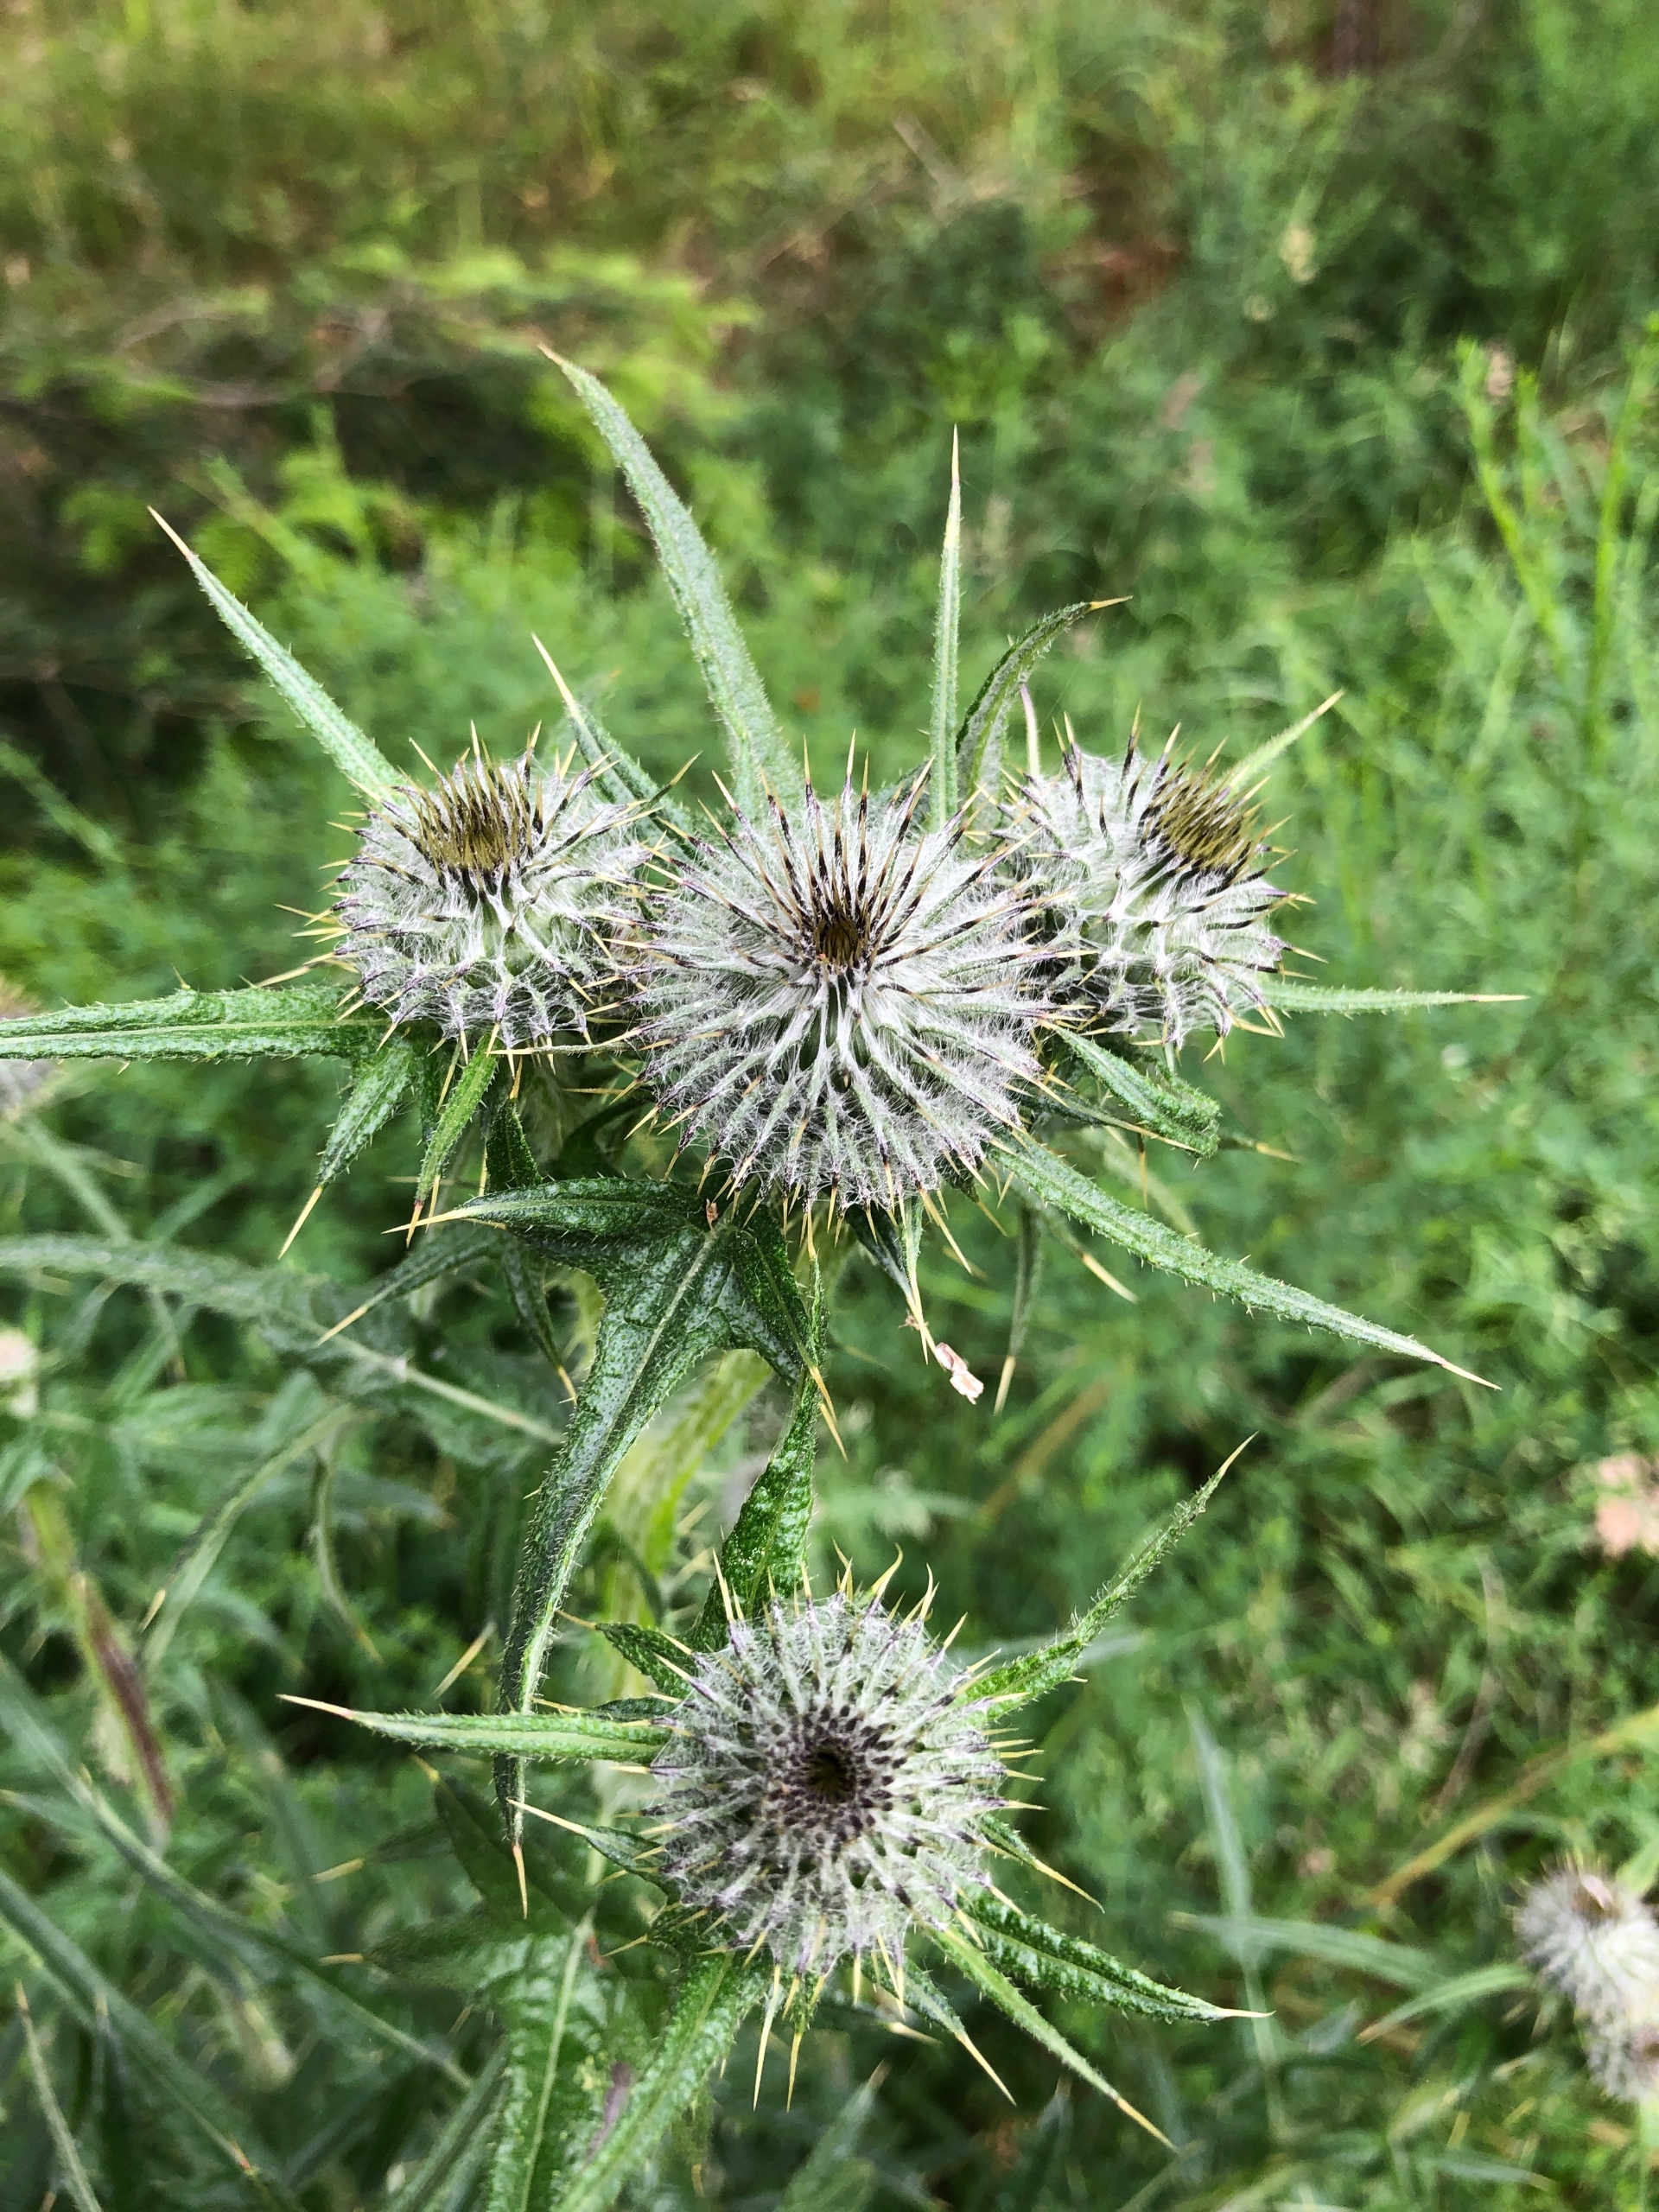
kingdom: Plantae
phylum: Tracheophyta
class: Magnoliopsida
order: Asterales
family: Asteraceae
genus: Cirsium
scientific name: Cirsium vulgare
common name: Horse-tidsel
